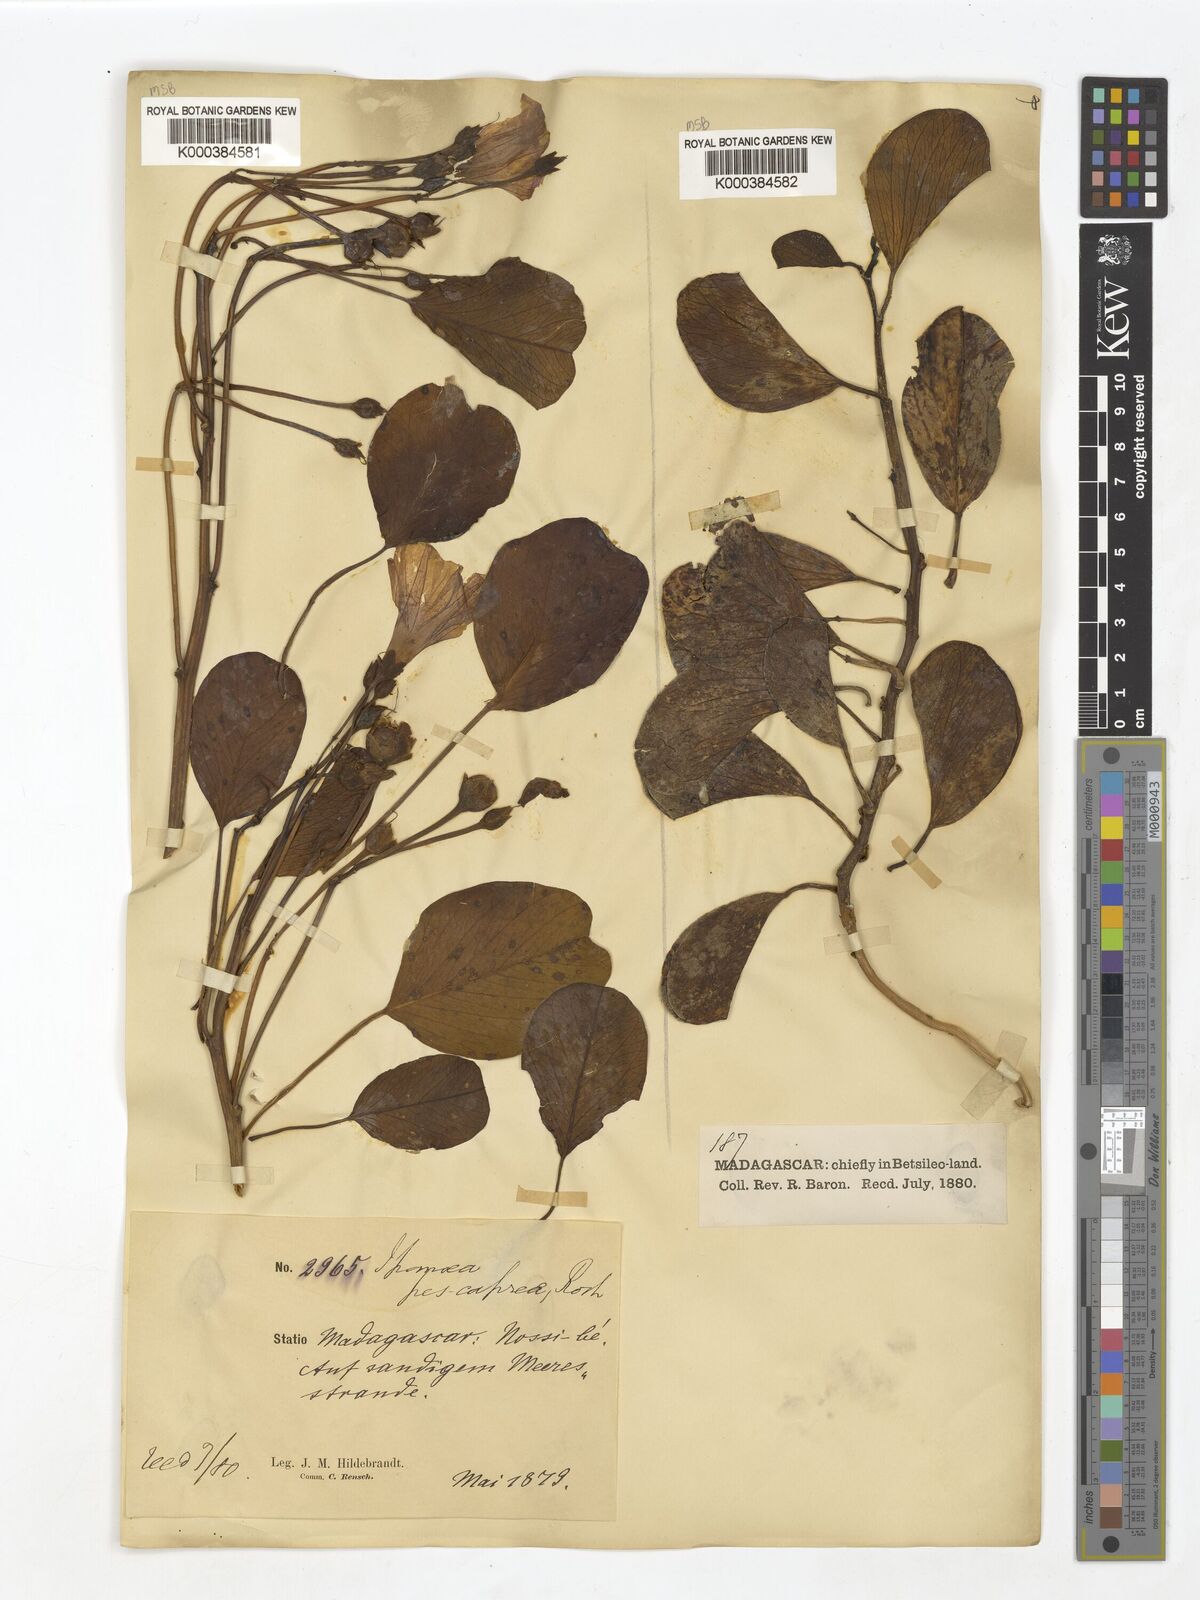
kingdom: Plantae
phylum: Tracheophyta
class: Magnoliopsida
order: Solanales
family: Convolvulaceae
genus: Ipomoea
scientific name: Ipomoea
